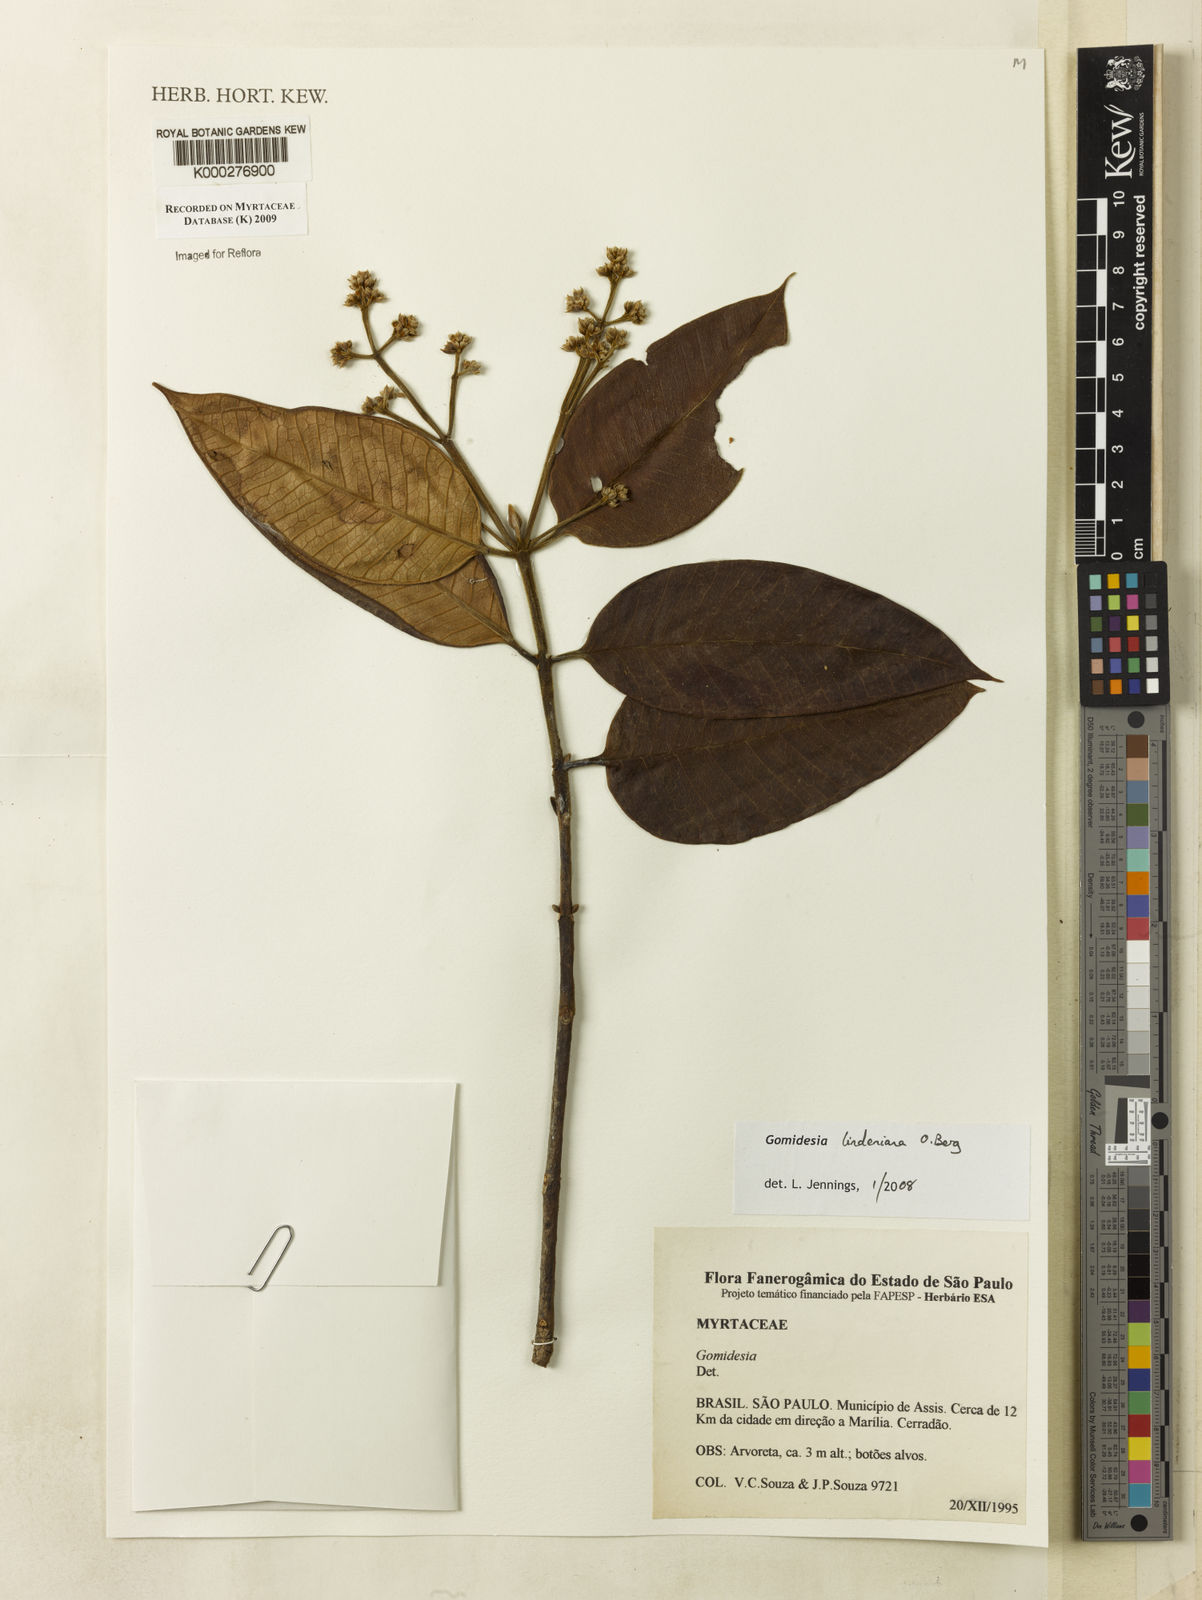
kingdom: Plantae
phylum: Tracheophyta
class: Magnoliopsida
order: Myrtales
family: Myrtaceae
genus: Myrcia
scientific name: Myrcia fenzliana
